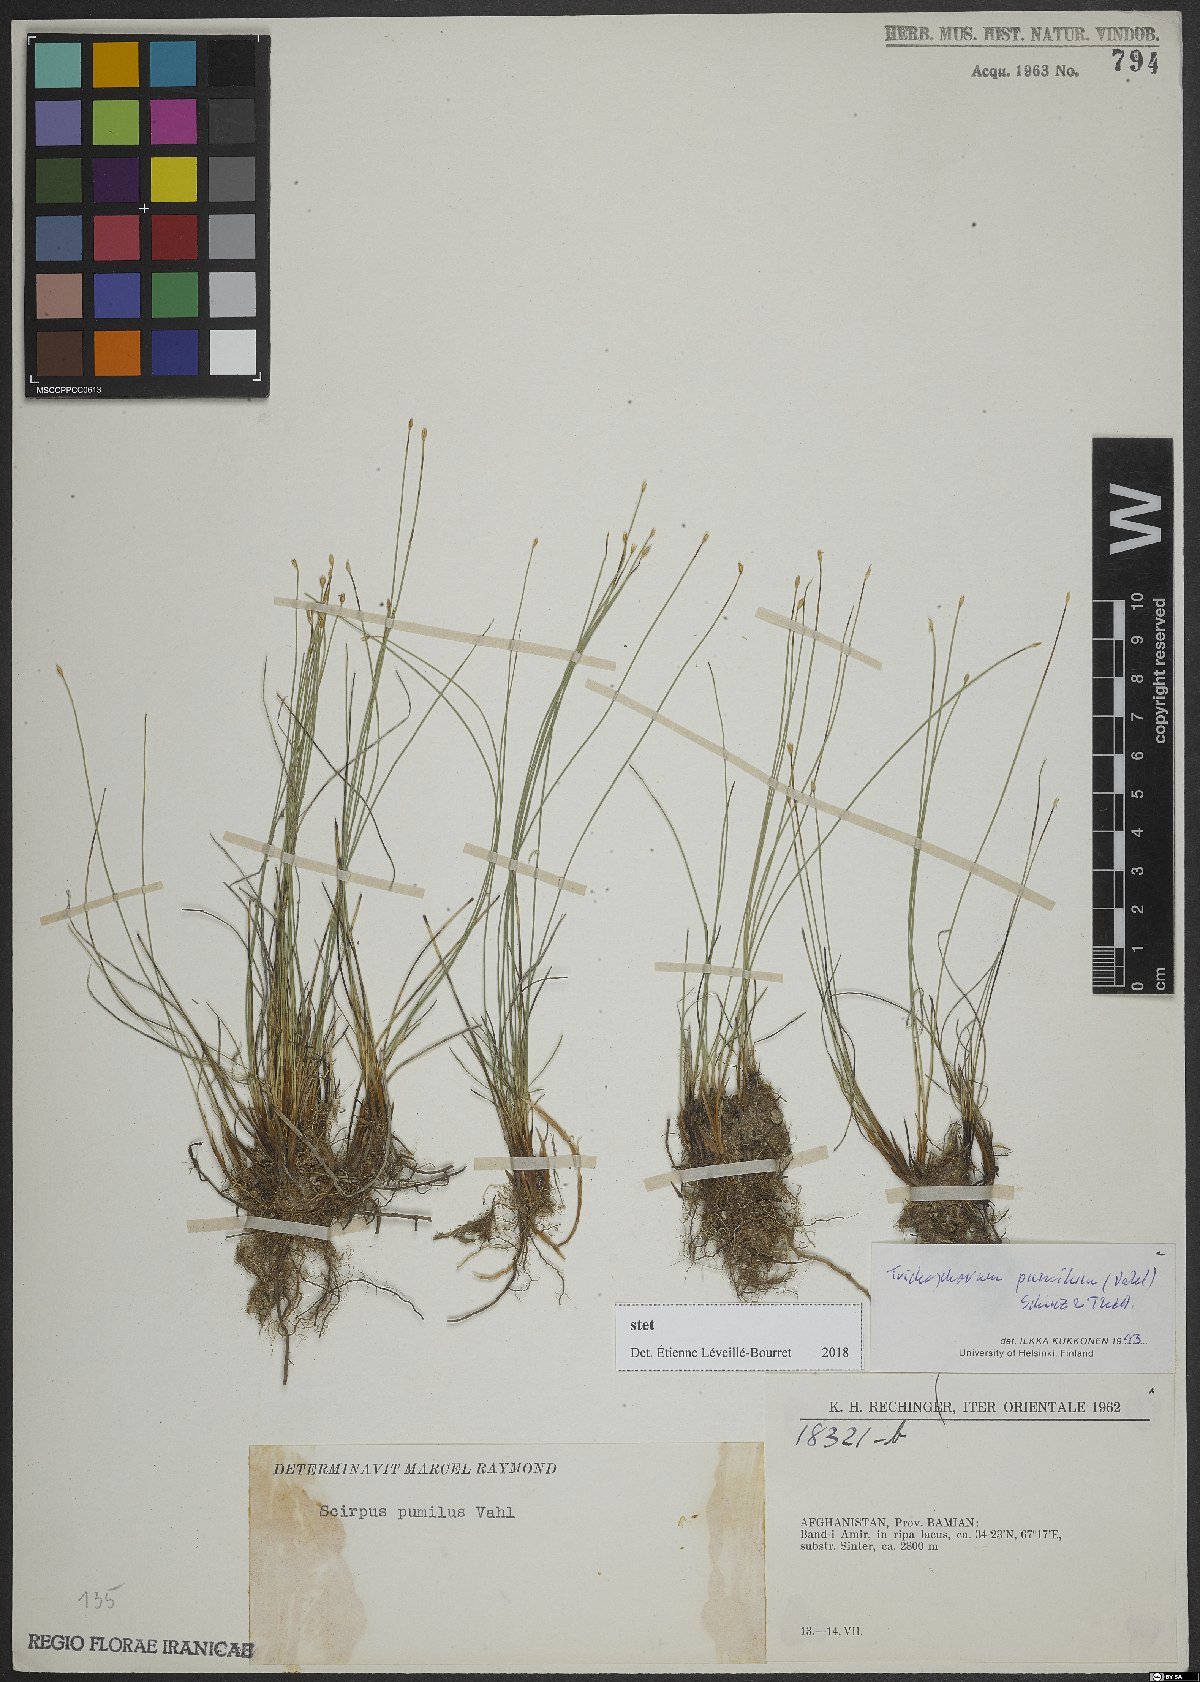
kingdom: Plantae
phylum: Tracheophyta
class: Liliopsida
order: Poales
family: Cyperaceae
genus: Trichophorum
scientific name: Trichophorum pumilum
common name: Rolland's bulrush
